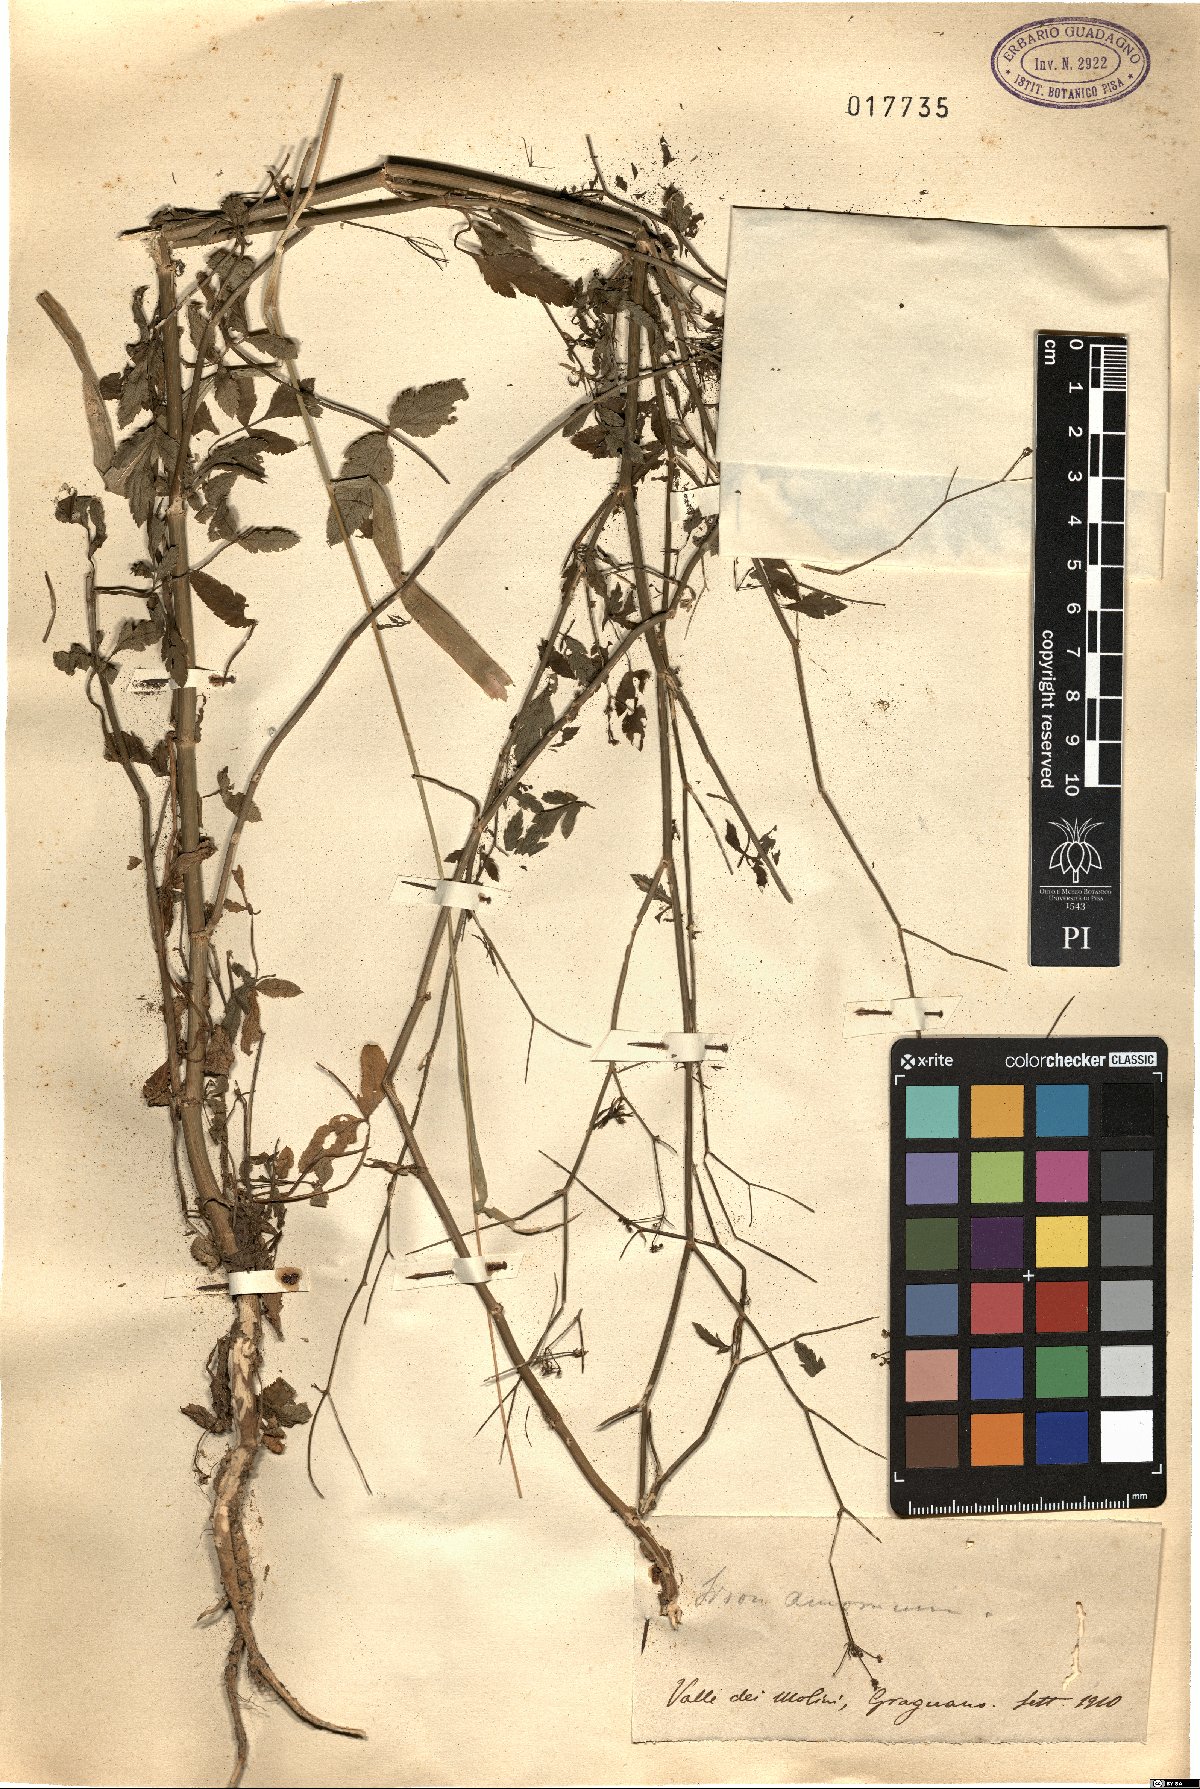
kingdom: Plantae
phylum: Tracheophyta
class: Magnoliopsida
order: Apiales
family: Apiaceae
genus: Sison
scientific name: Sison amomum
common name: Stone-parsley
